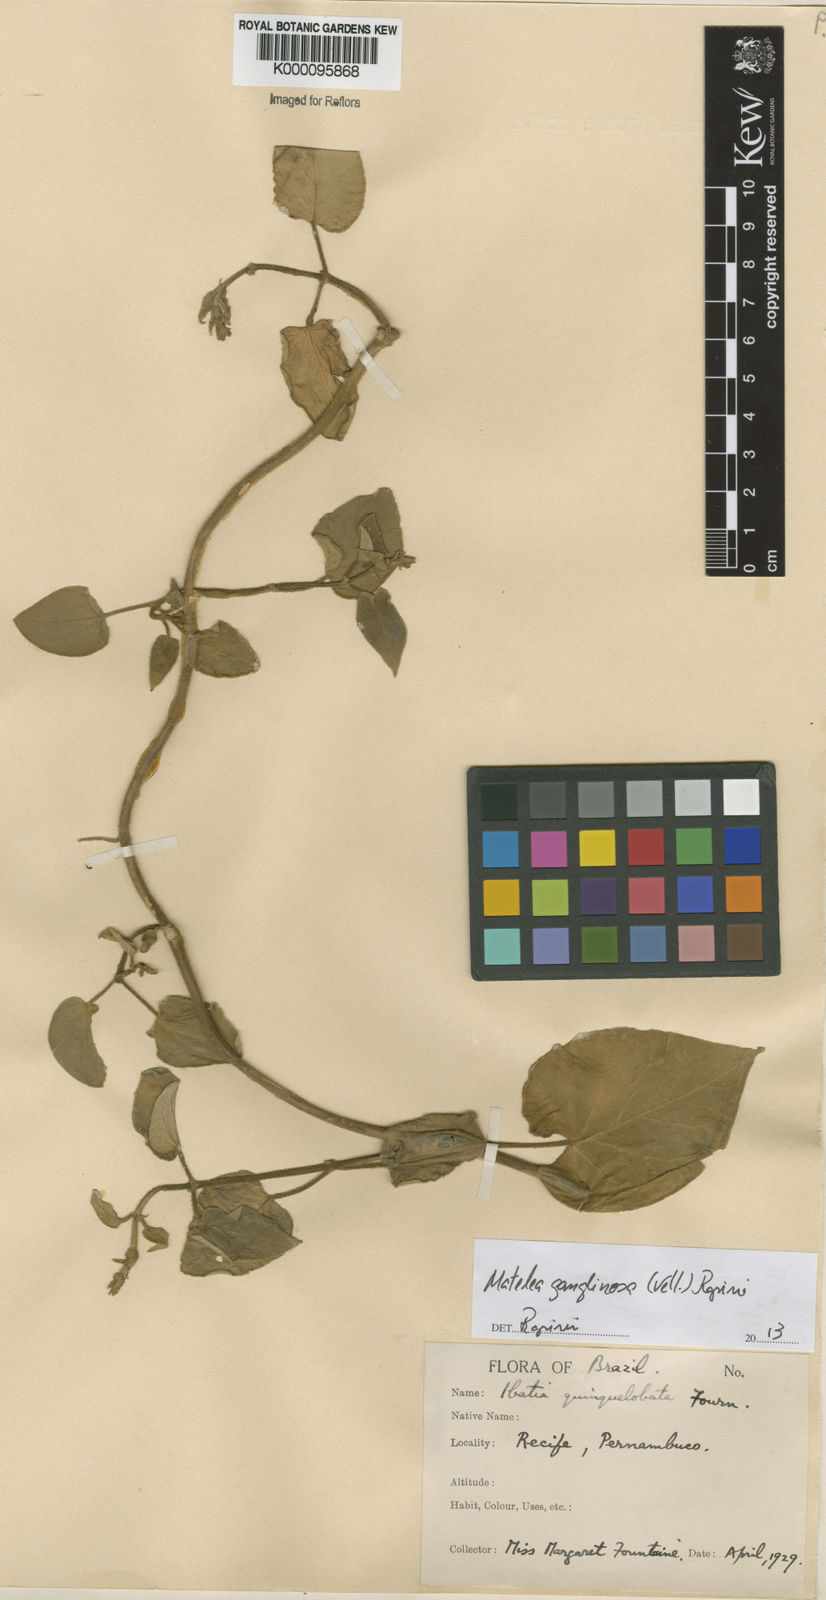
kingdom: Plantae
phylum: Tracheophyta
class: Magnoliopsida
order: Gentianales
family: Apocynaceae
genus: Ibatia
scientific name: Ibatia ganglinosa
